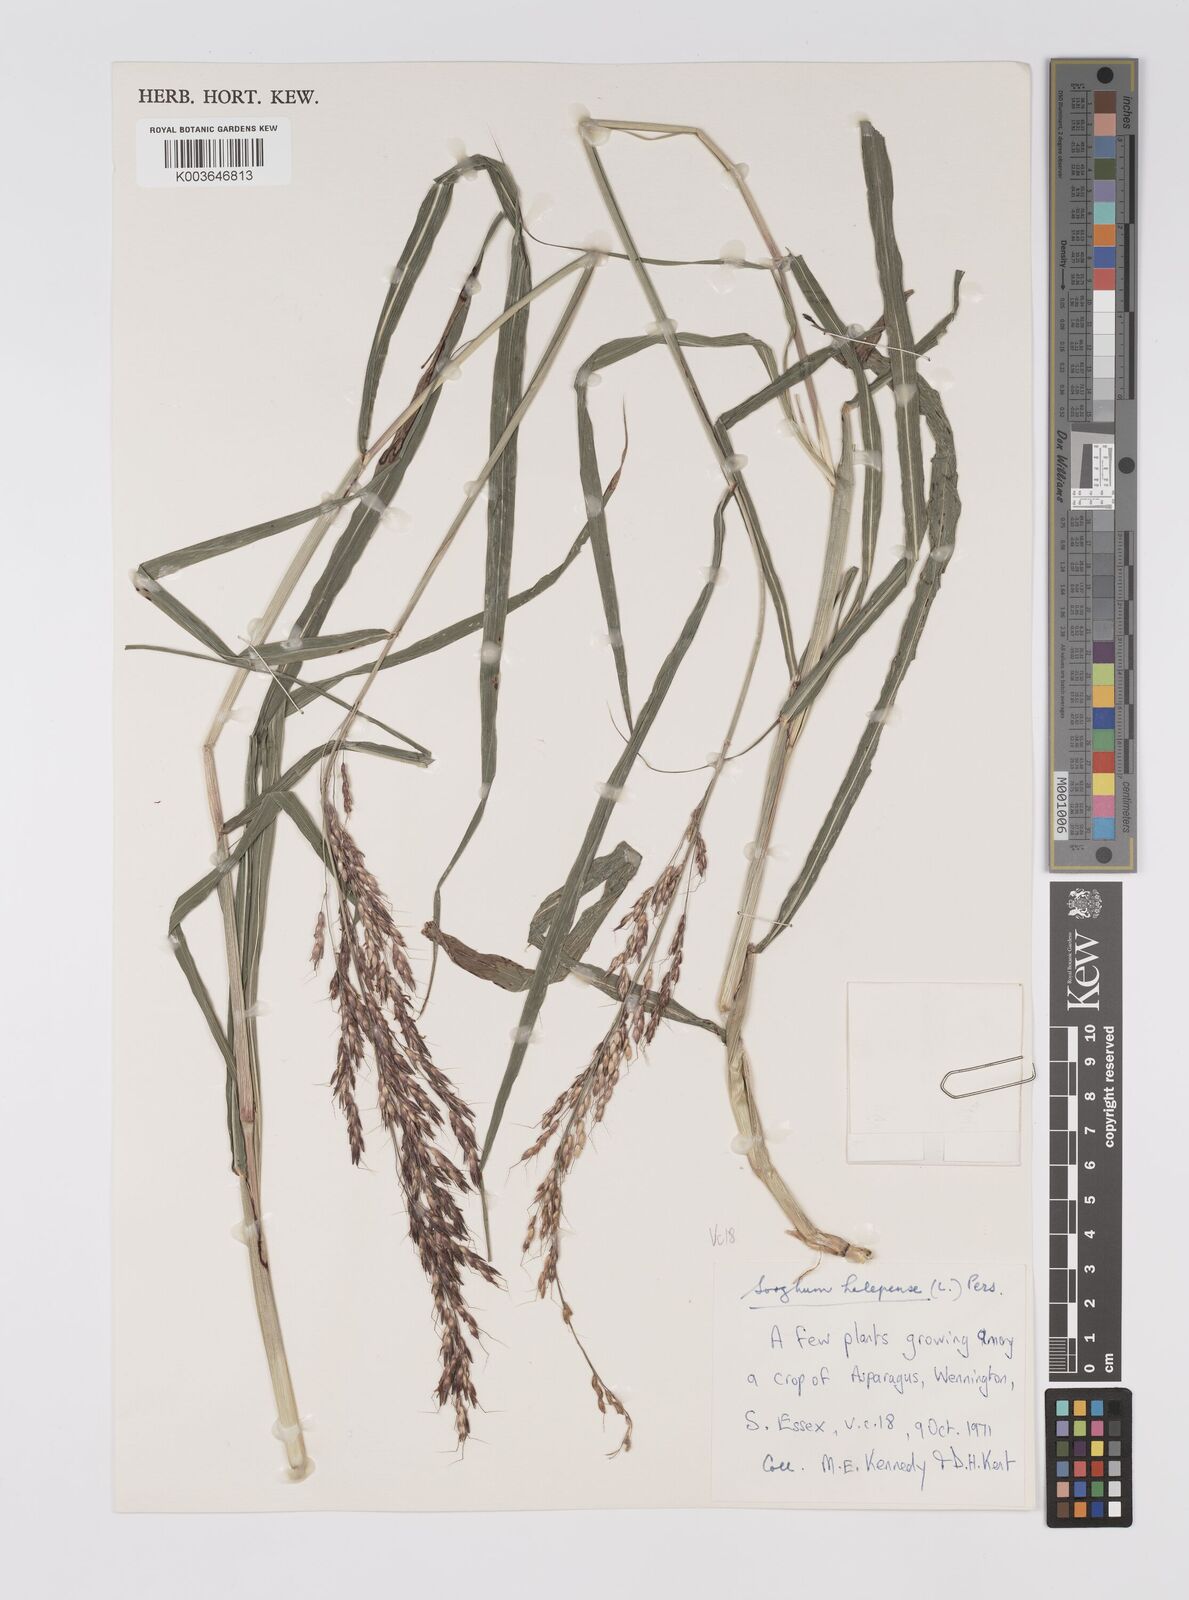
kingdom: Plantae
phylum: Tracheophyta
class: Liliopsida
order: Poales
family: Poaceae
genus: Sorghum
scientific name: Sorghum halepense
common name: Johnson-grass
